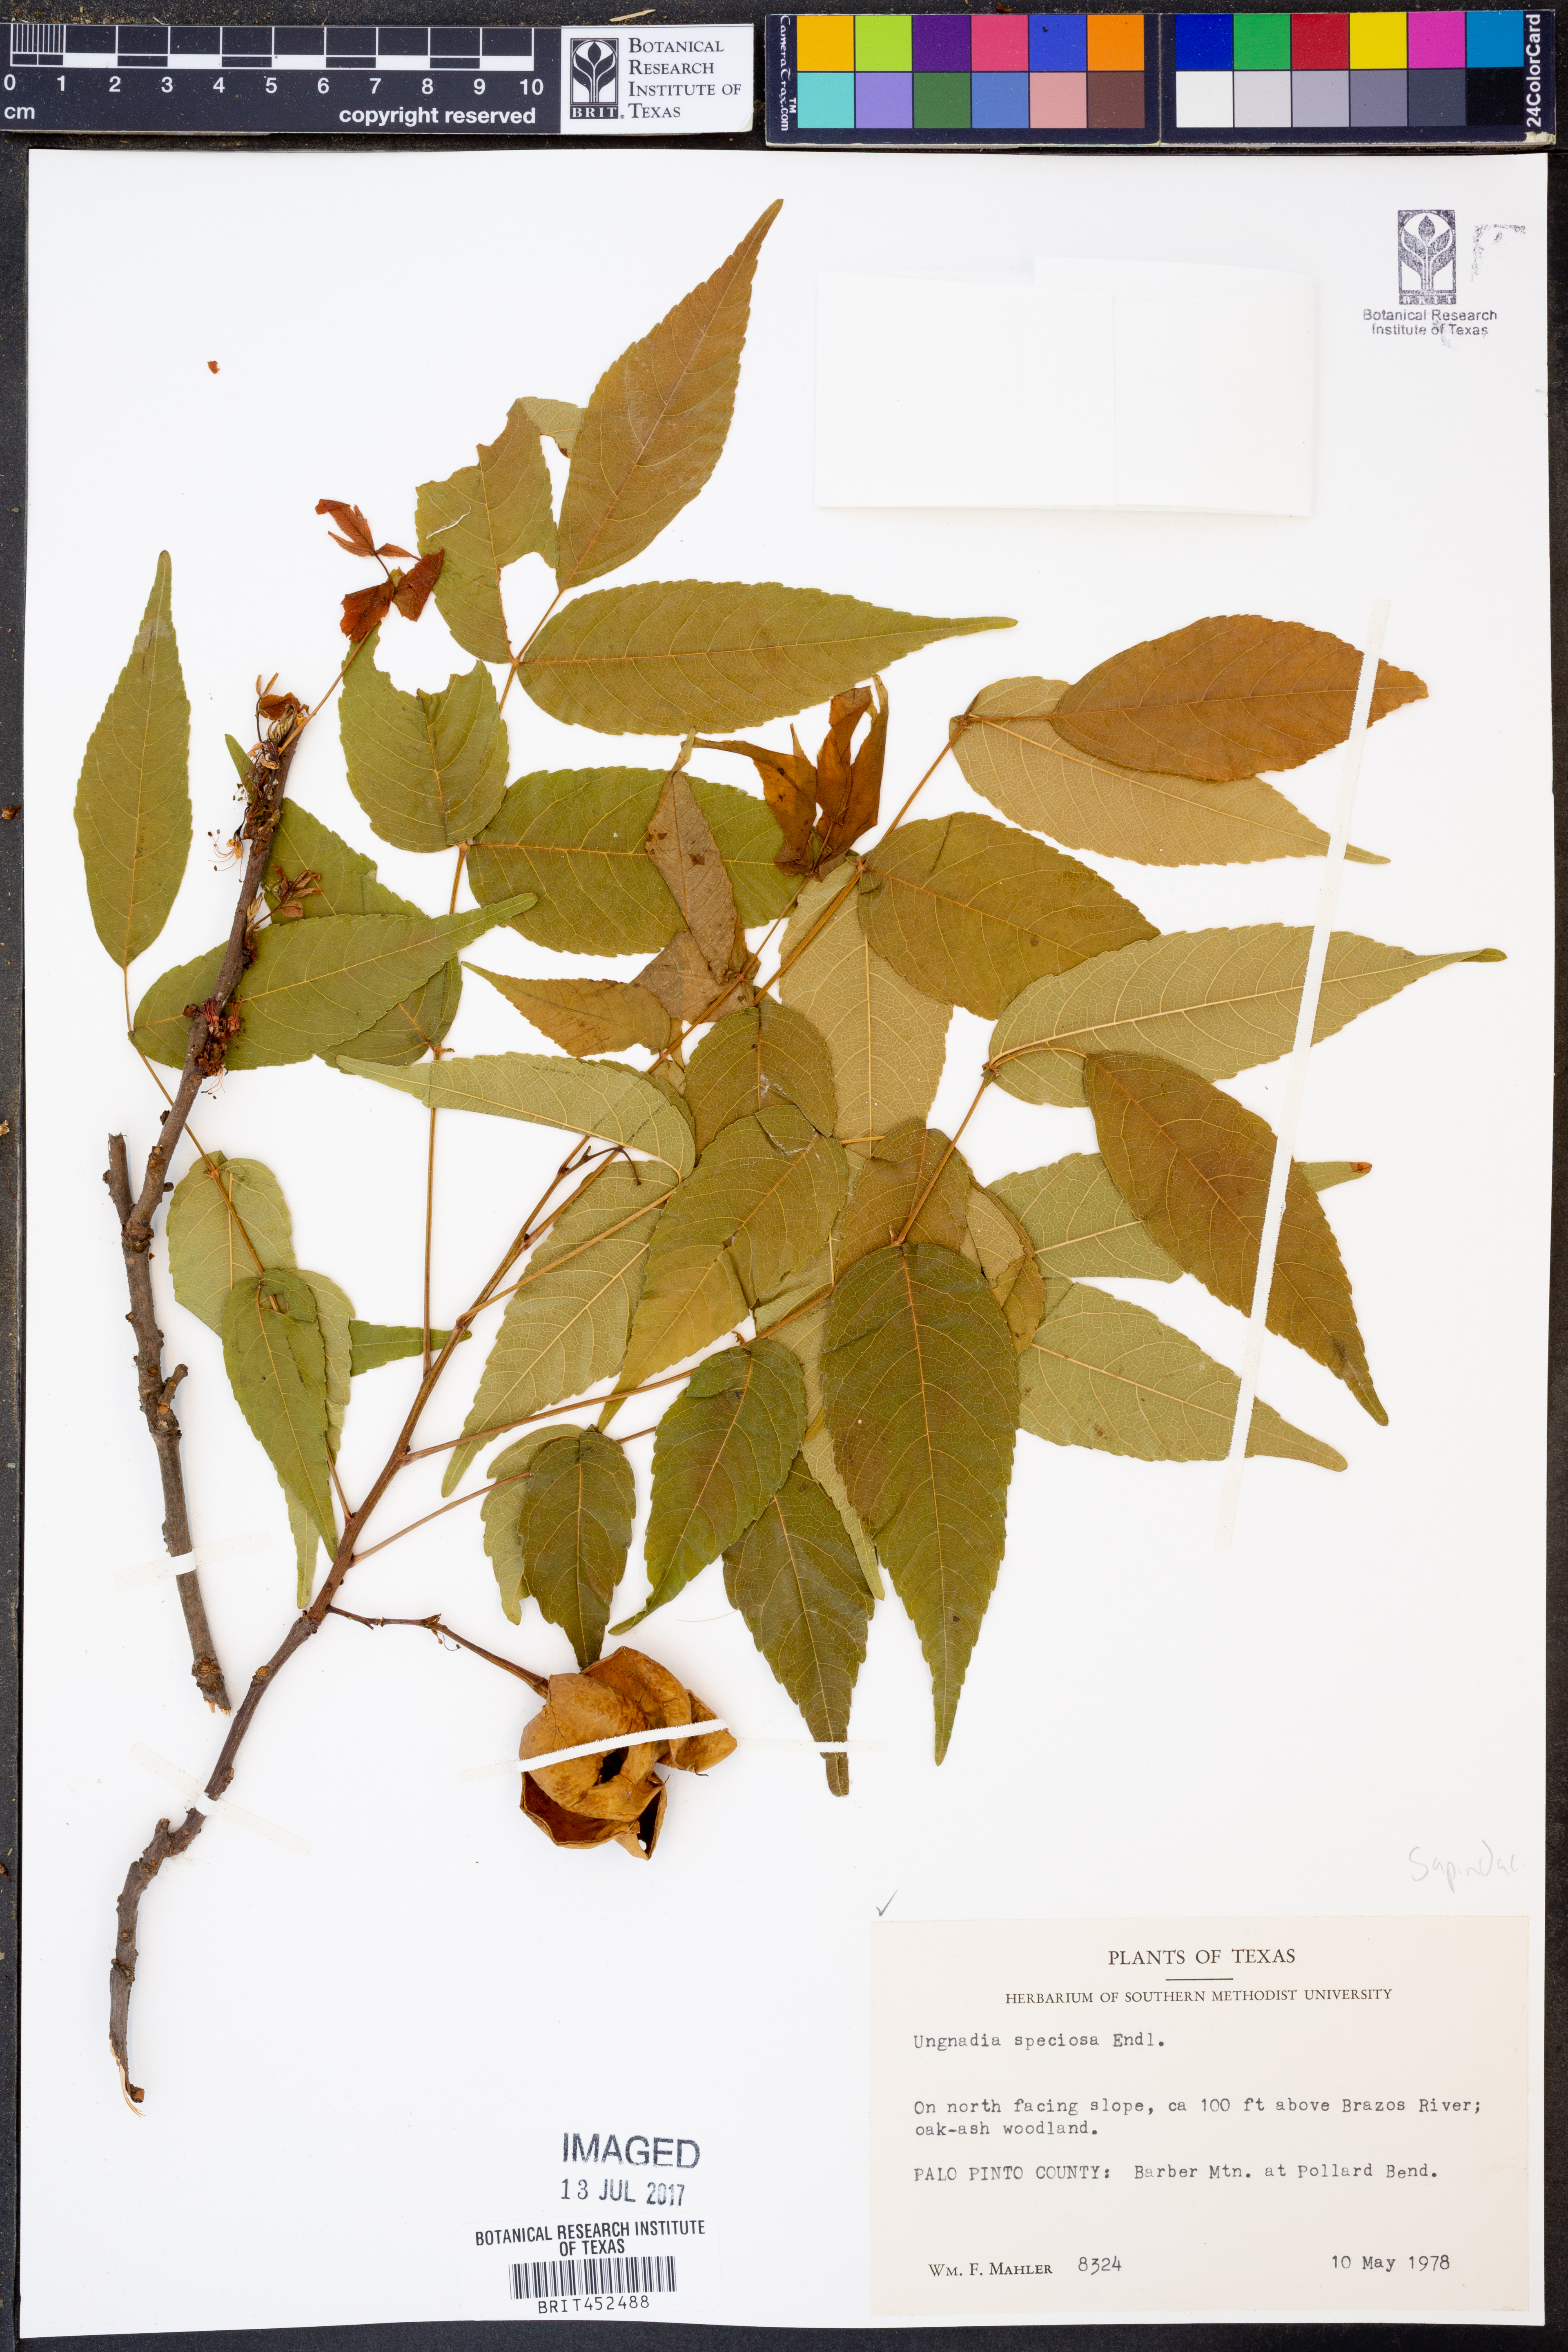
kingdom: Plantae
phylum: Tracheophyta
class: Magnoliopsida
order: Sapindales
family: Sapindaceae
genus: Ungnadia
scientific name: Ungnadia speciosa
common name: Texas-buckeye
